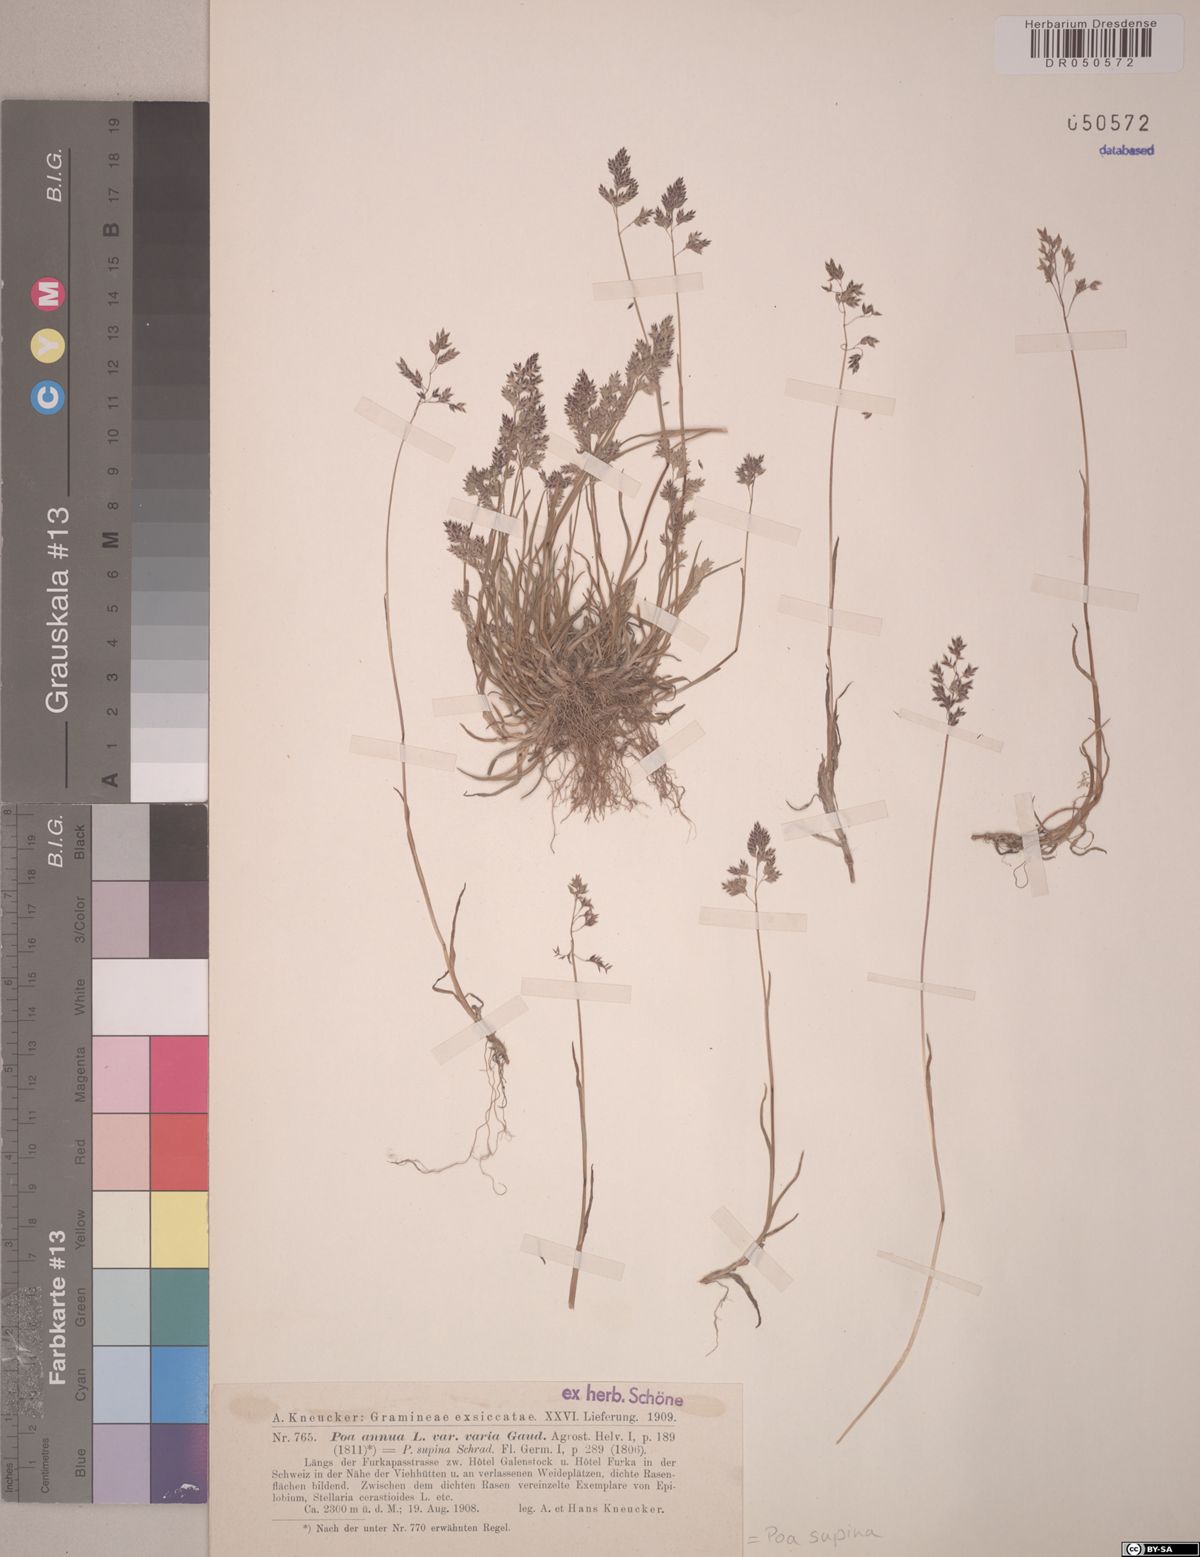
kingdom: Plantae
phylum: Tracheophyta
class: Liliopsida
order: Poales
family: Poaceae
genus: Poa
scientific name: Poa supina
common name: Supina bluegrass
